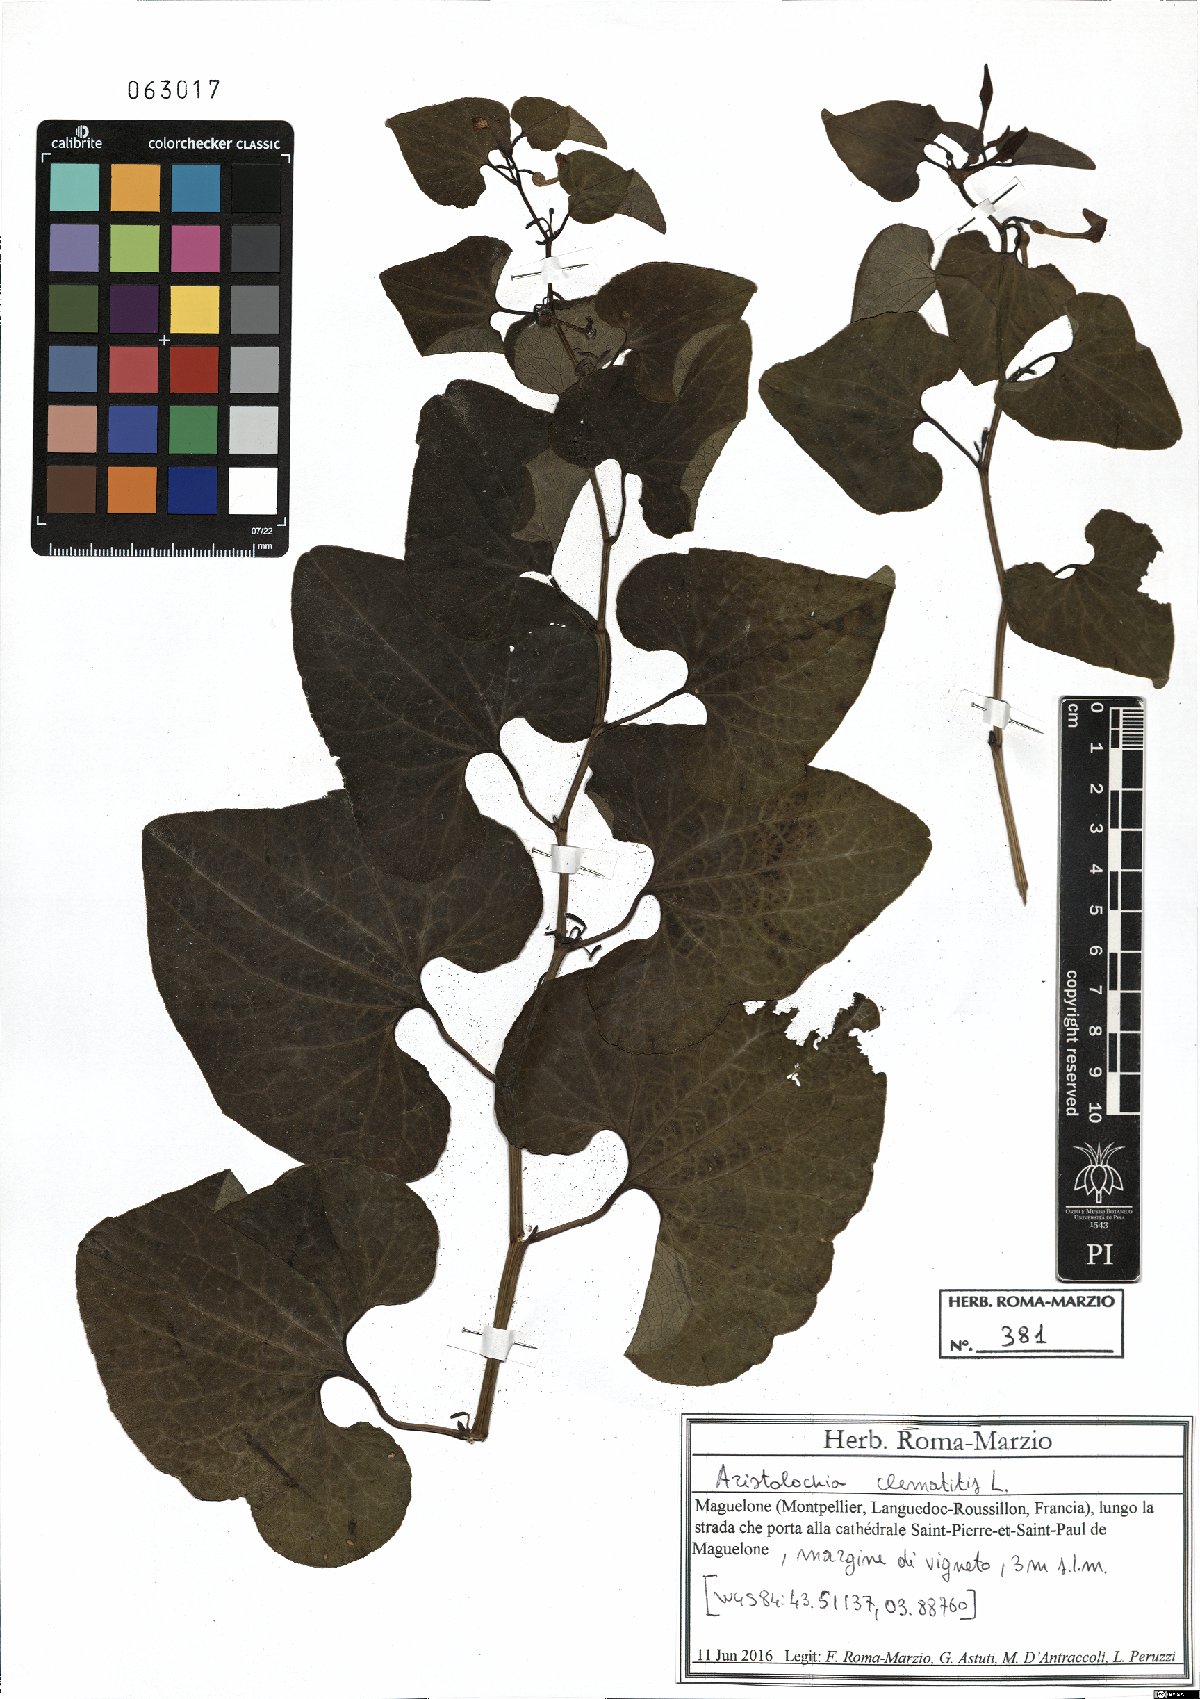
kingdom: Plantae
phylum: Tracheophyta
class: Magnoliopsida
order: Piperales
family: Aristolochiaceae
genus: Aristolochia
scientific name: Aristolochia clematitis
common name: Birthwort
